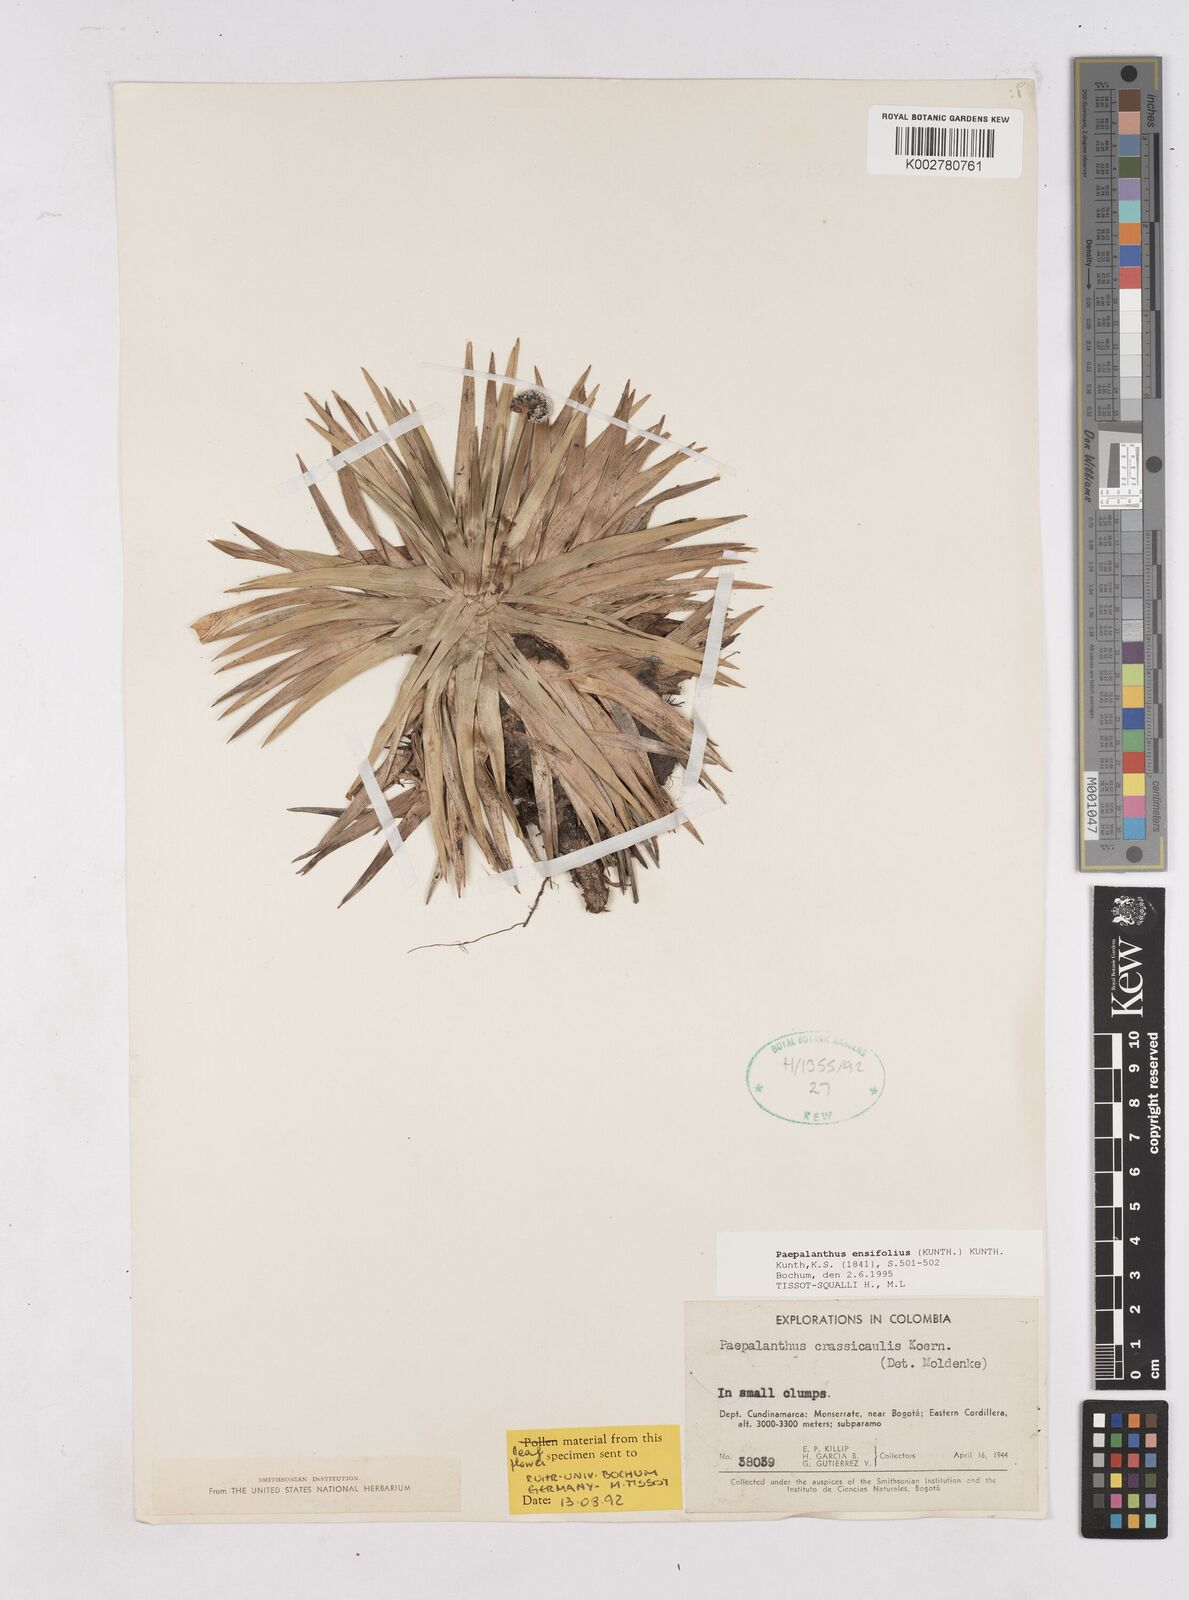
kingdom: Plantae
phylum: Tracheophyta
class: Liliopsida
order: Poales
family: Eriocaulaceae
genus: Paepalanthus
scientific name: Paepalanthus ensifolius
